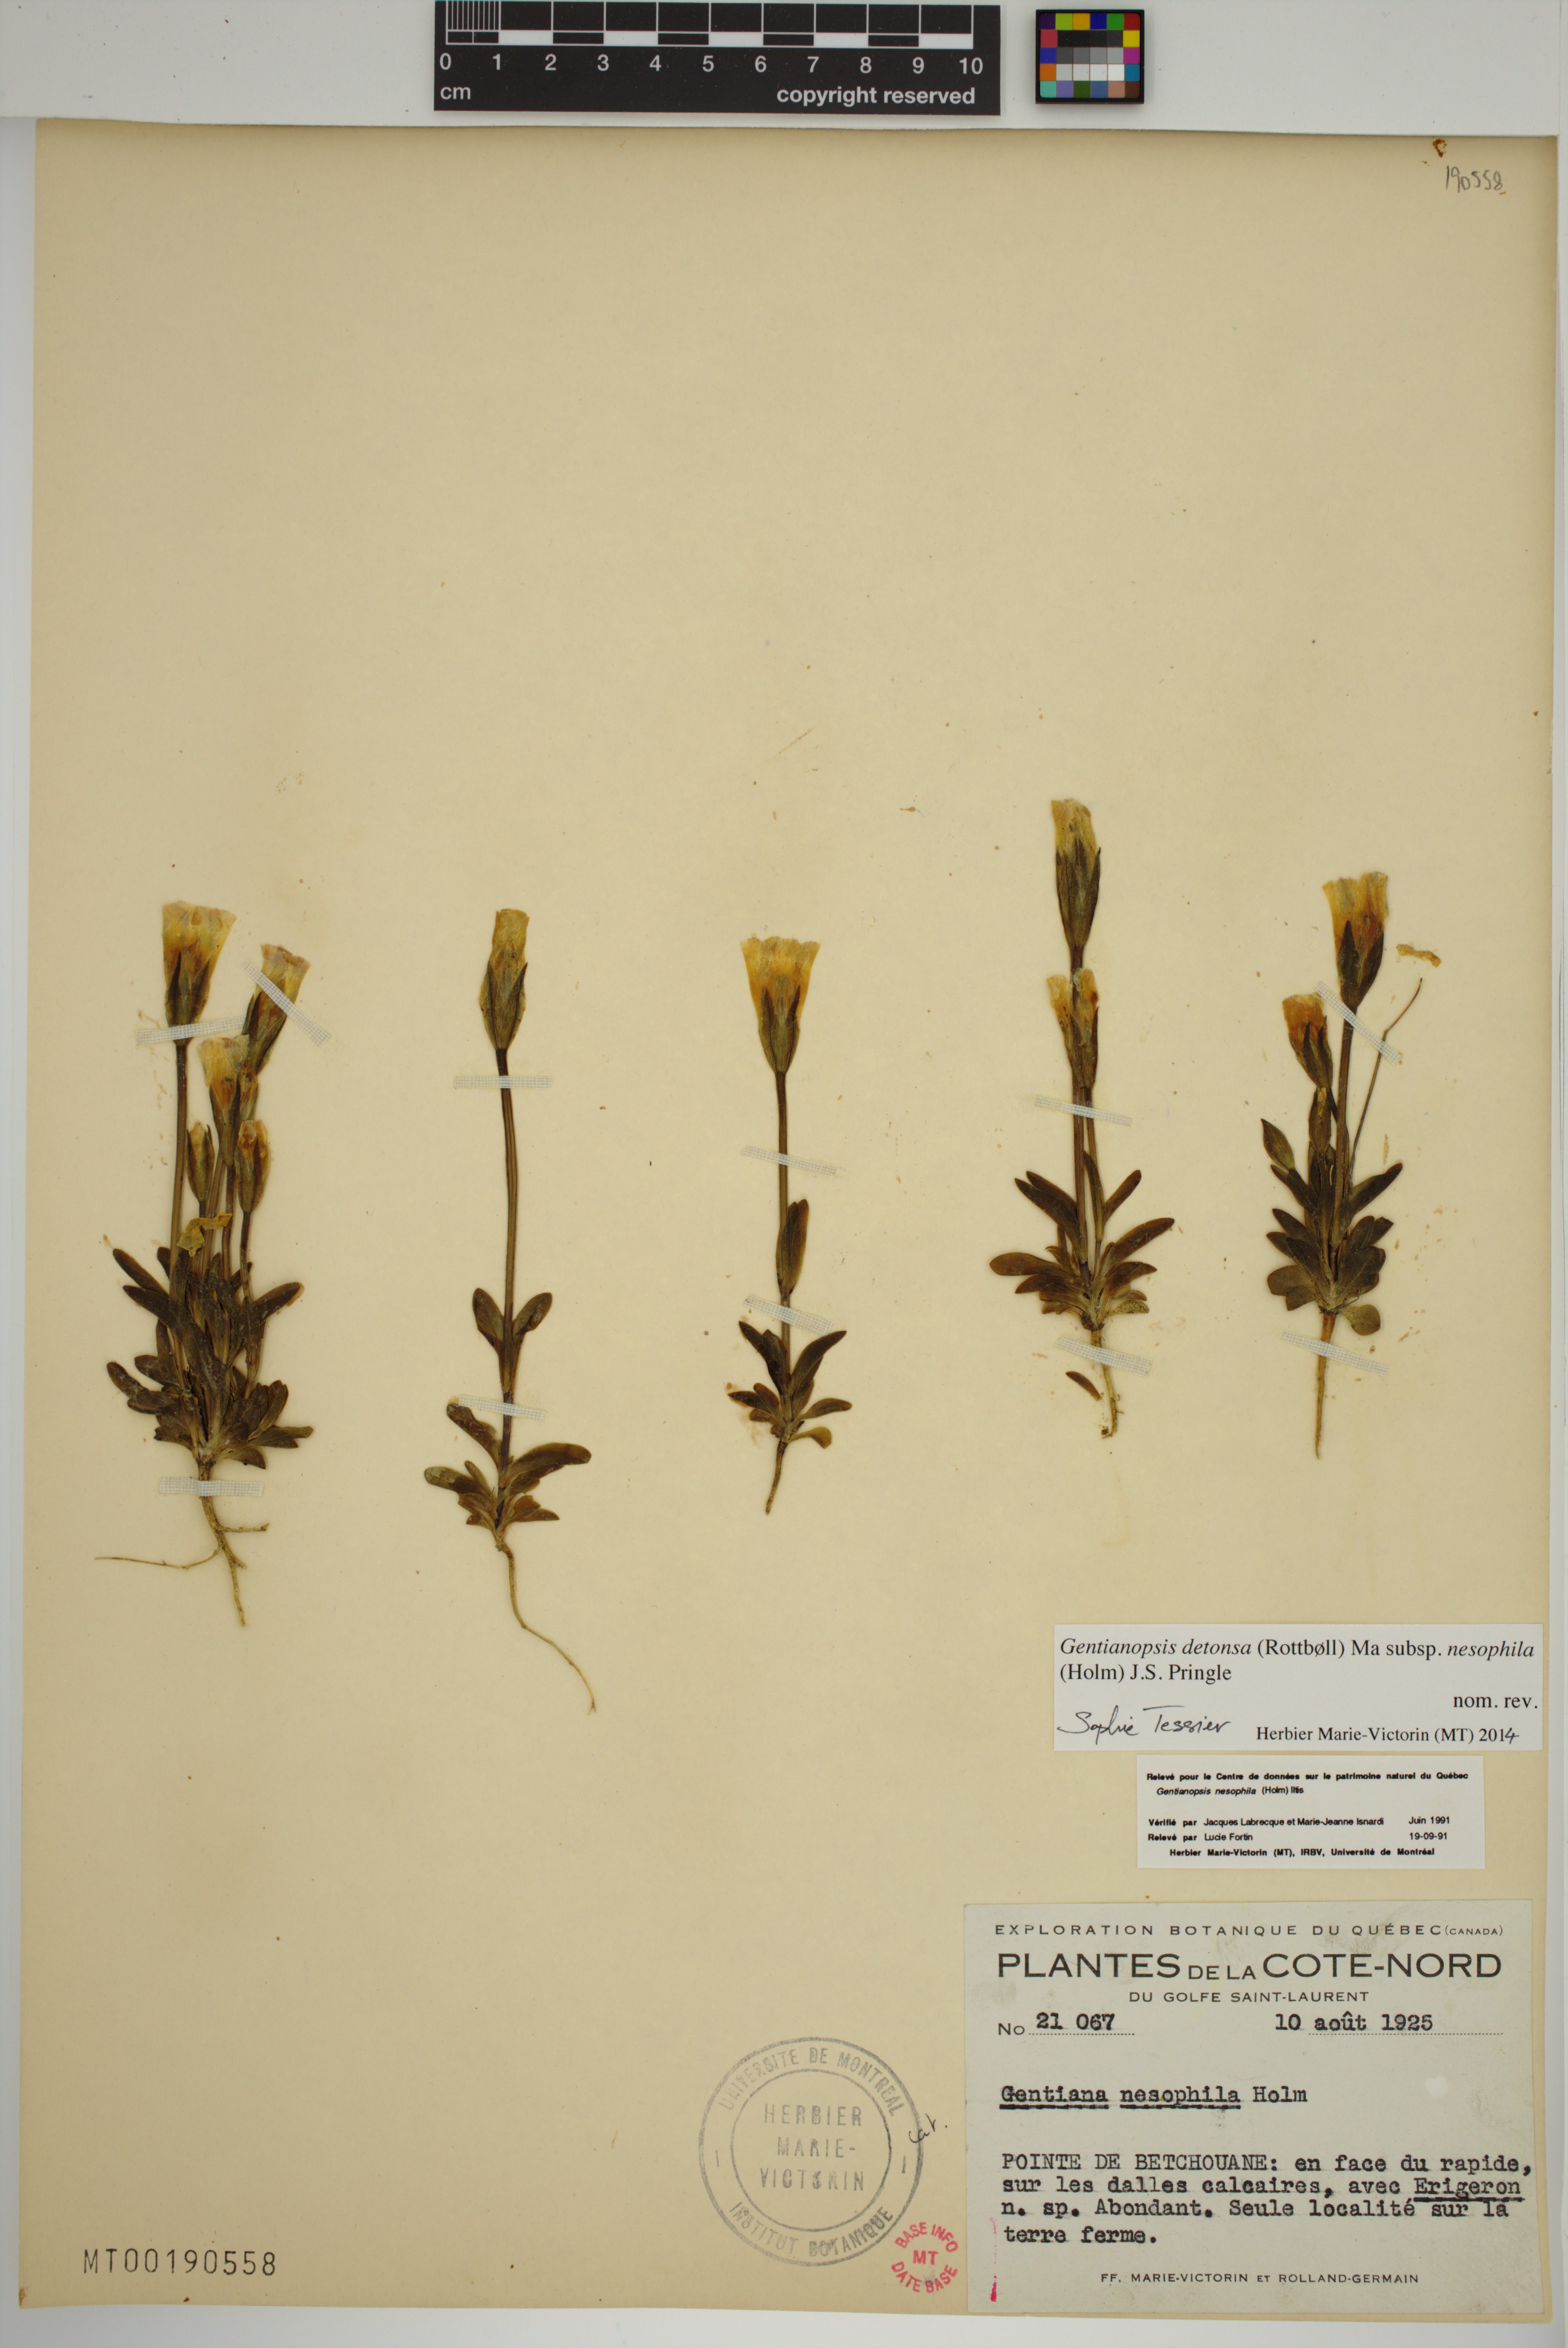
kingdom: Plantae
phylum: Tracheophyta
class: Magnoliopsida
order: Gentianales
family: Gentianaceae
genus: Gentianopsis
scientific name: Gentianopsis nesophila
